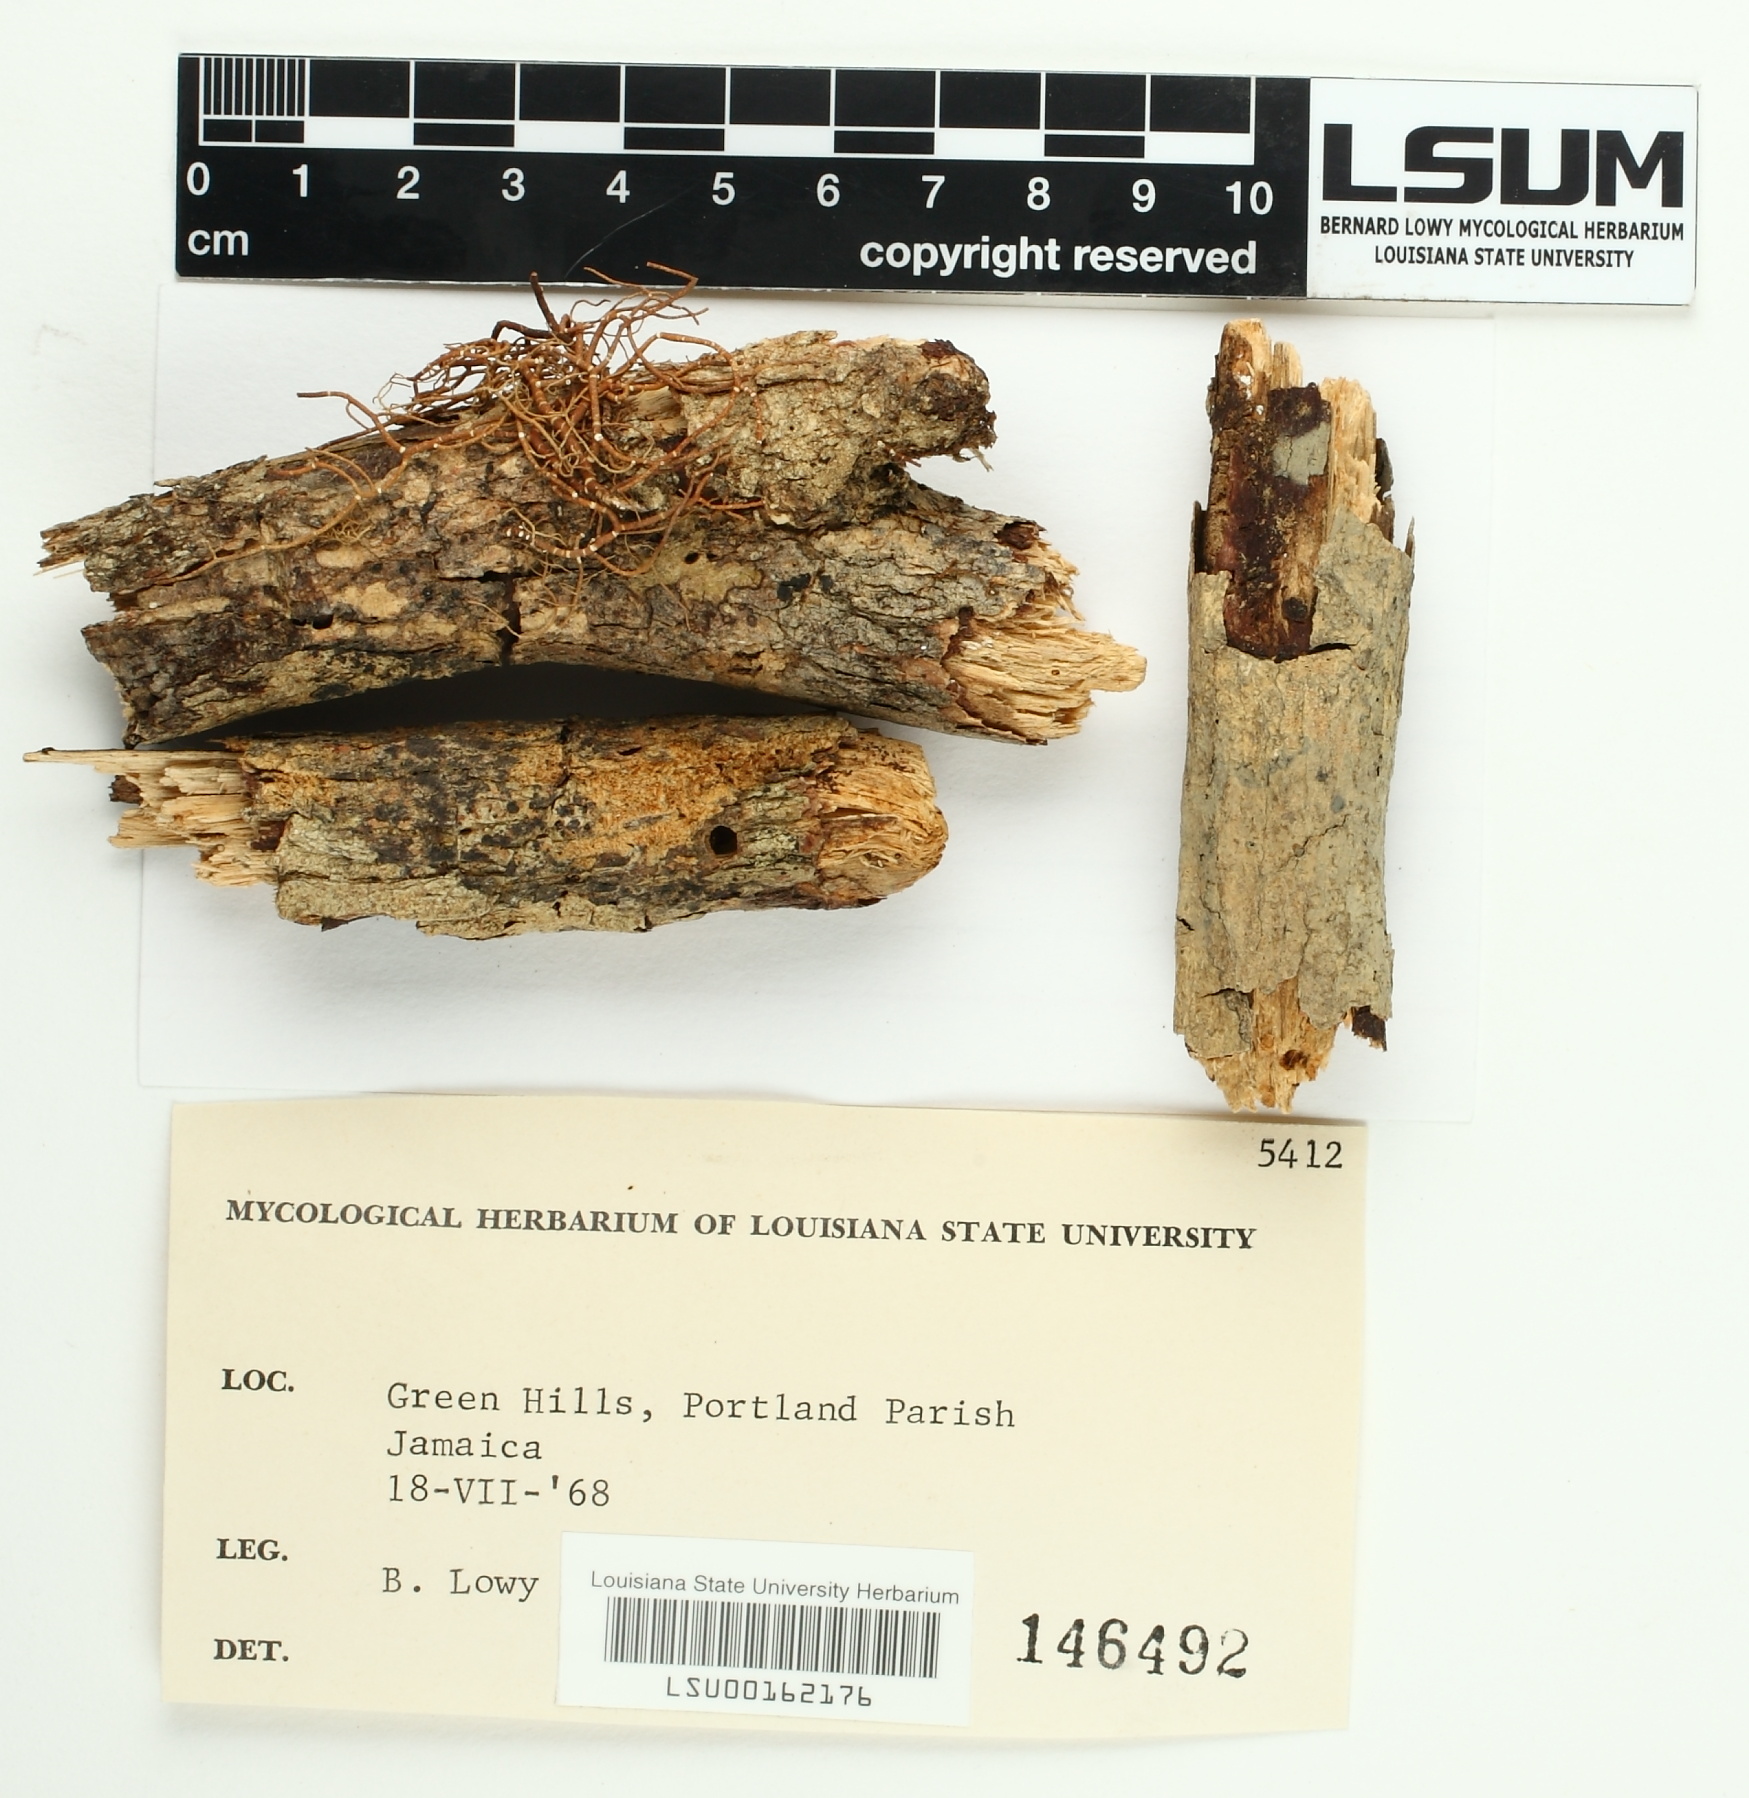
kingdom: Fungi
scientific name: Fungi
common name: Fungi
